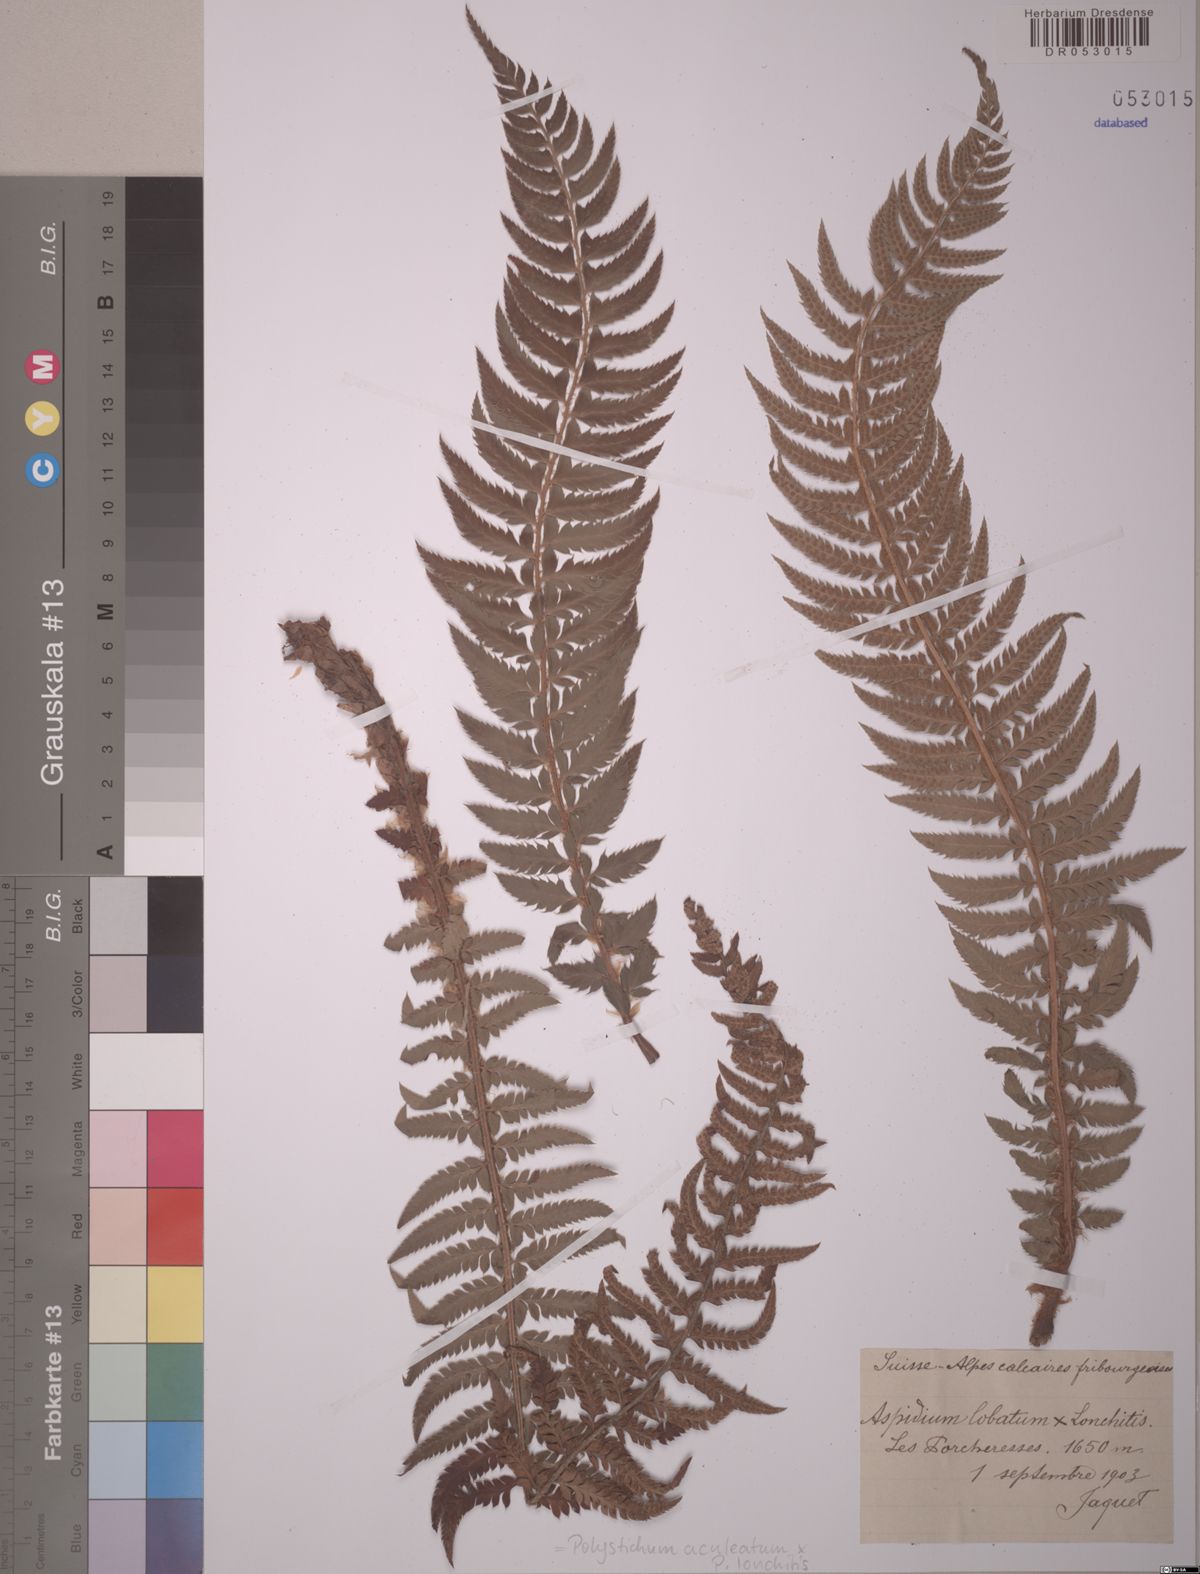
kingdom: Plantae
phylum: Tracheophyta
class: Polypodiopsida
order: Polypodiales
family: Dryopteridaceae
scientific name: Dryopteridaceae
